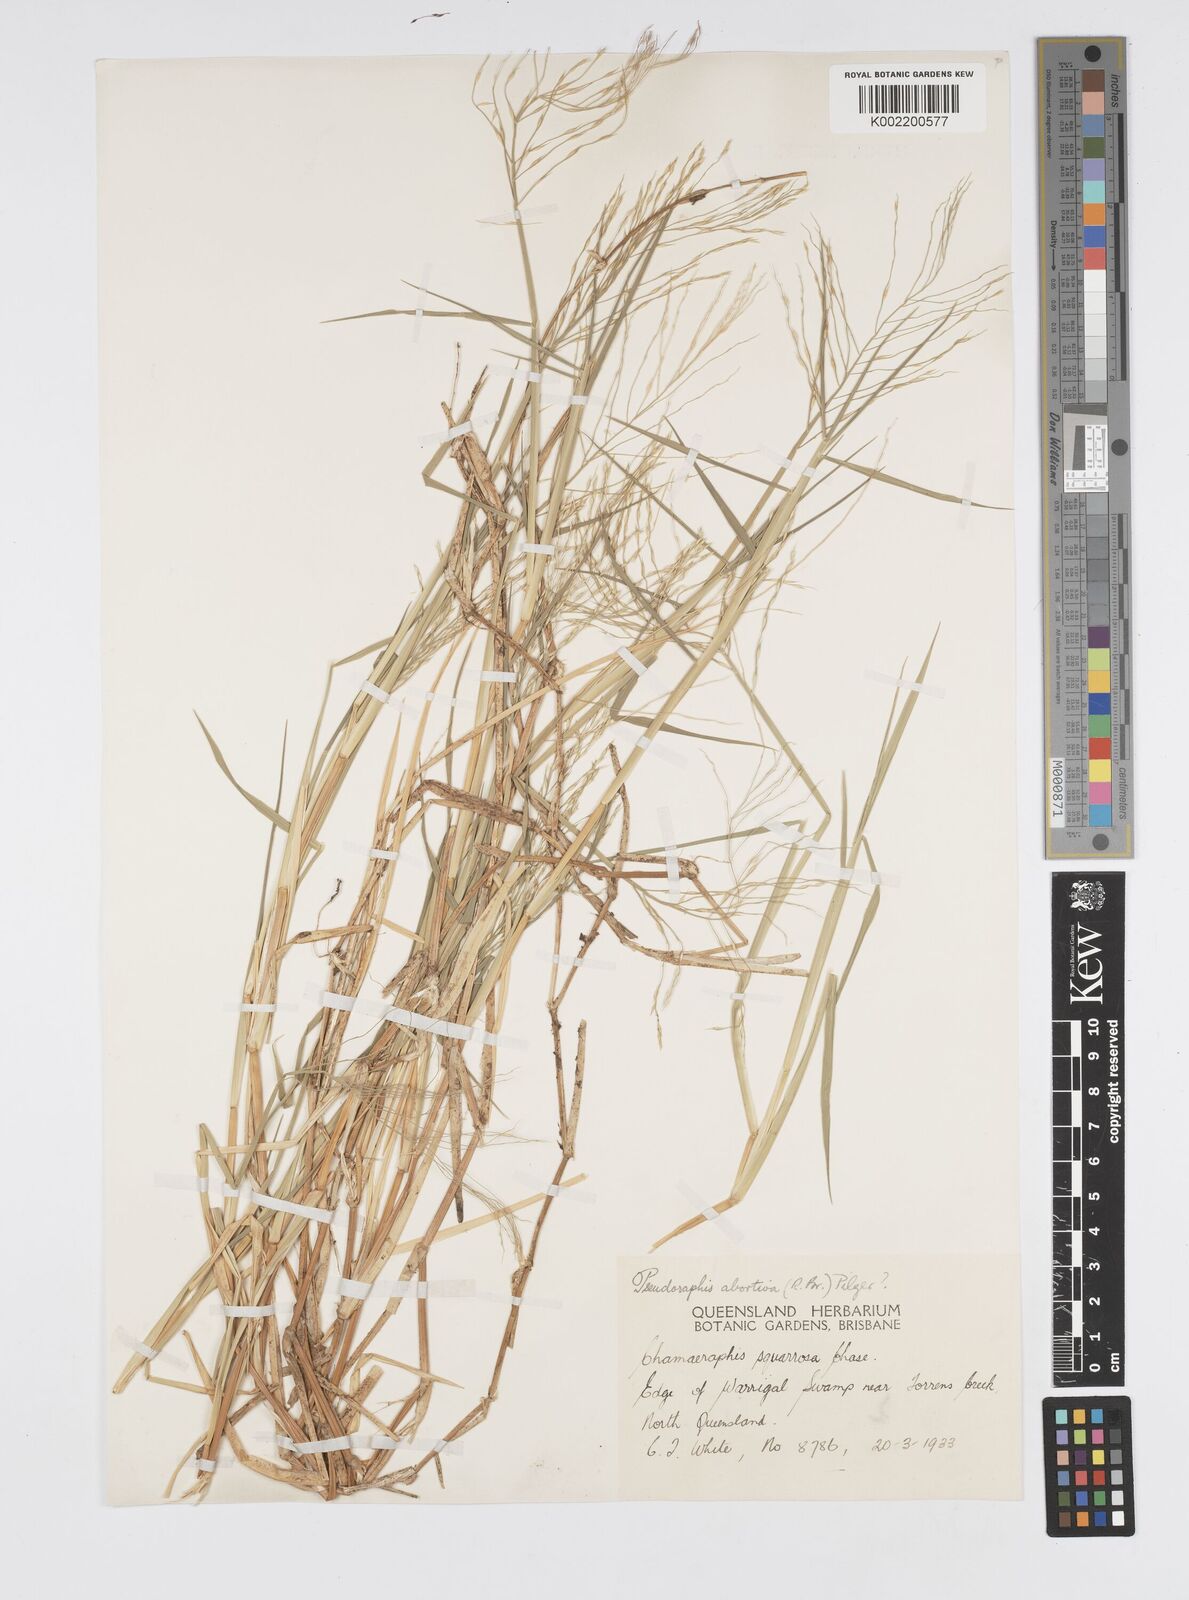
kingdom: Plantae
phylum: Tracheophyta
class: Liliopsida
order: Poales
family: Poaceae
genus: Pseudoraphis
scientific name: Pseudoraphis spinescens
